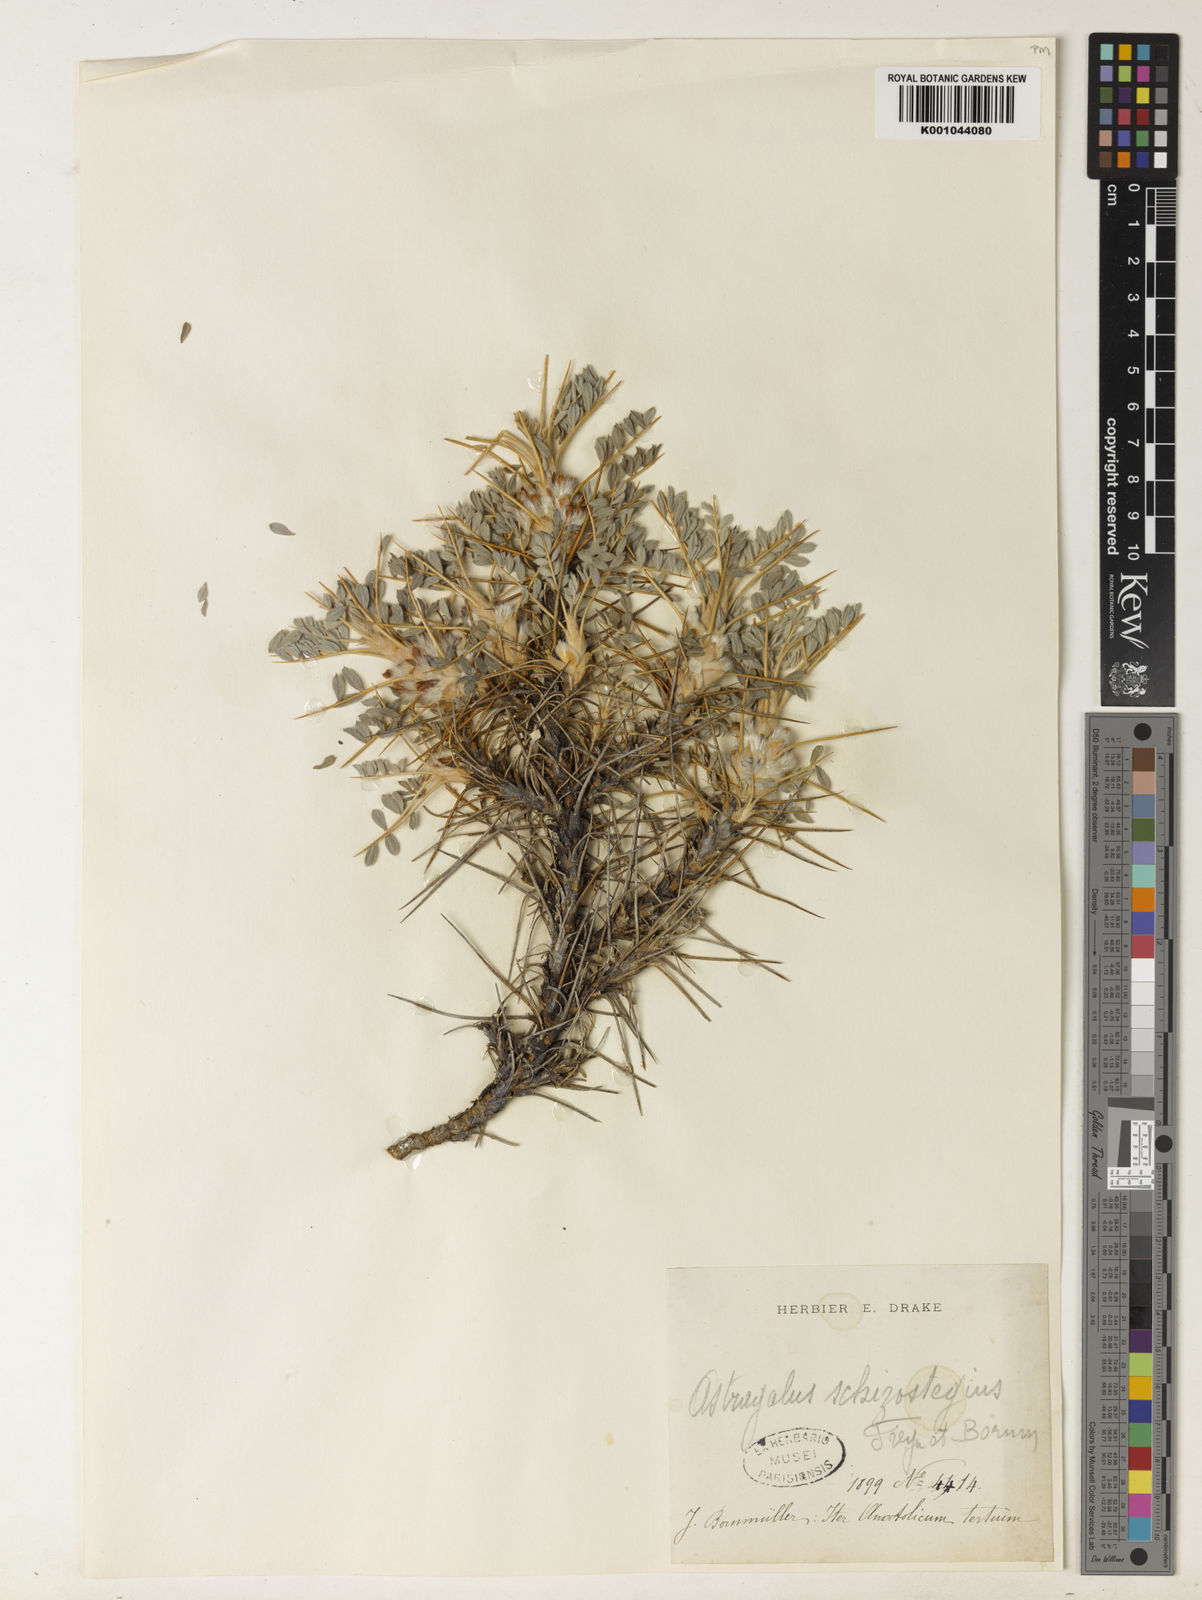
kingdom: Plantae
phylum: Tracheophyta
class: Magnoliopsida
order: Fabales
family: Fabaceae
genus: Astragalus
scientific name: Astragalus tmoleus
